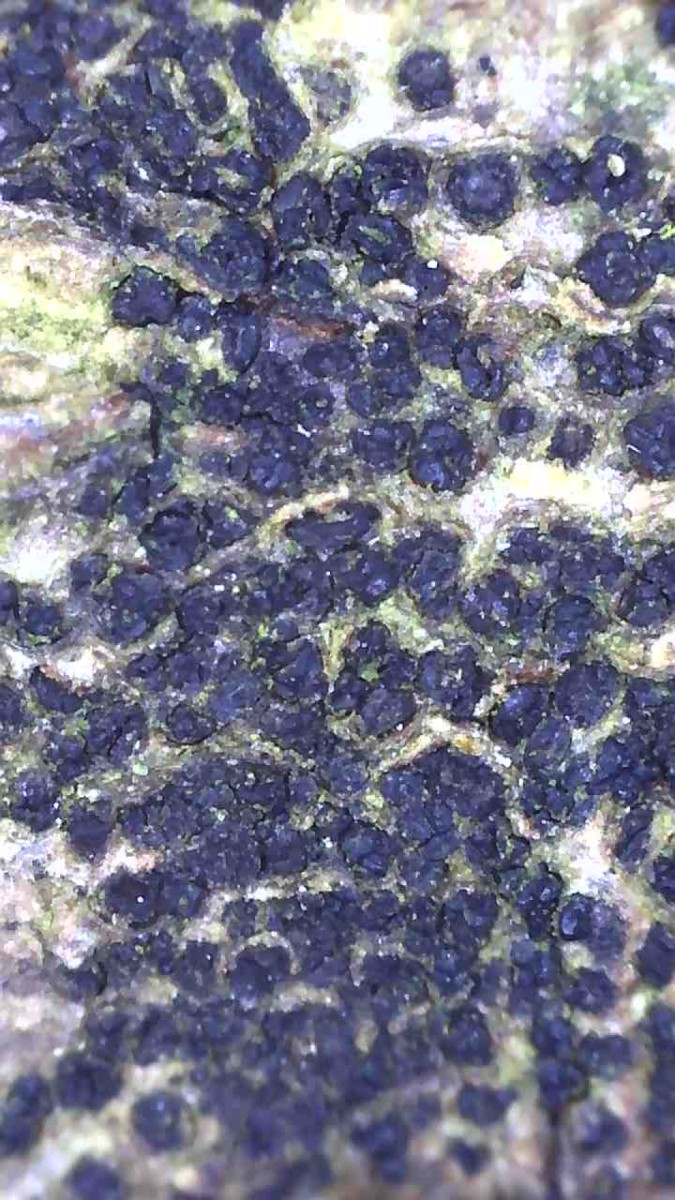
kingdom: Fungi
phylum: Ascomycota
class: Sordariomycetes
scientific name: Sordariomycetes
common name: kernesvampklassen
